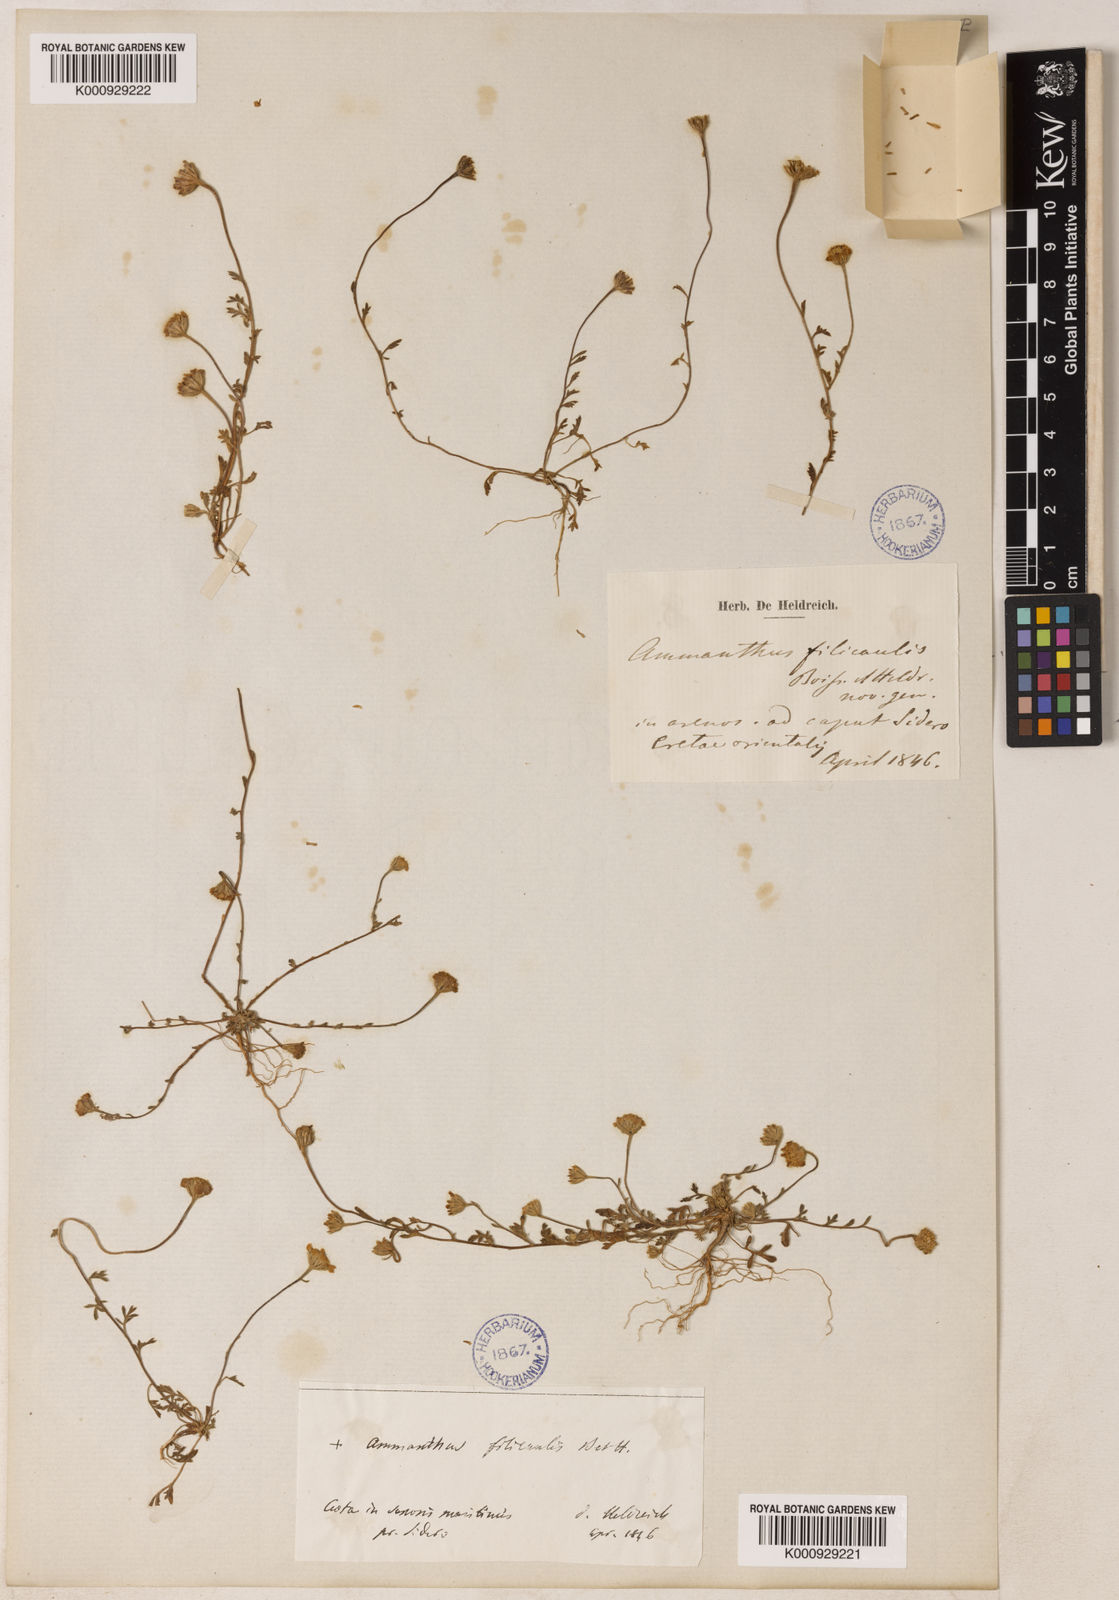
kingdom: Plantae
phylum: Tracheophyta
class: Magnoliopsida
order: Asterales
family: Asteraceae
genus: Anthemis
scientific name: Anthemis filicaulis
